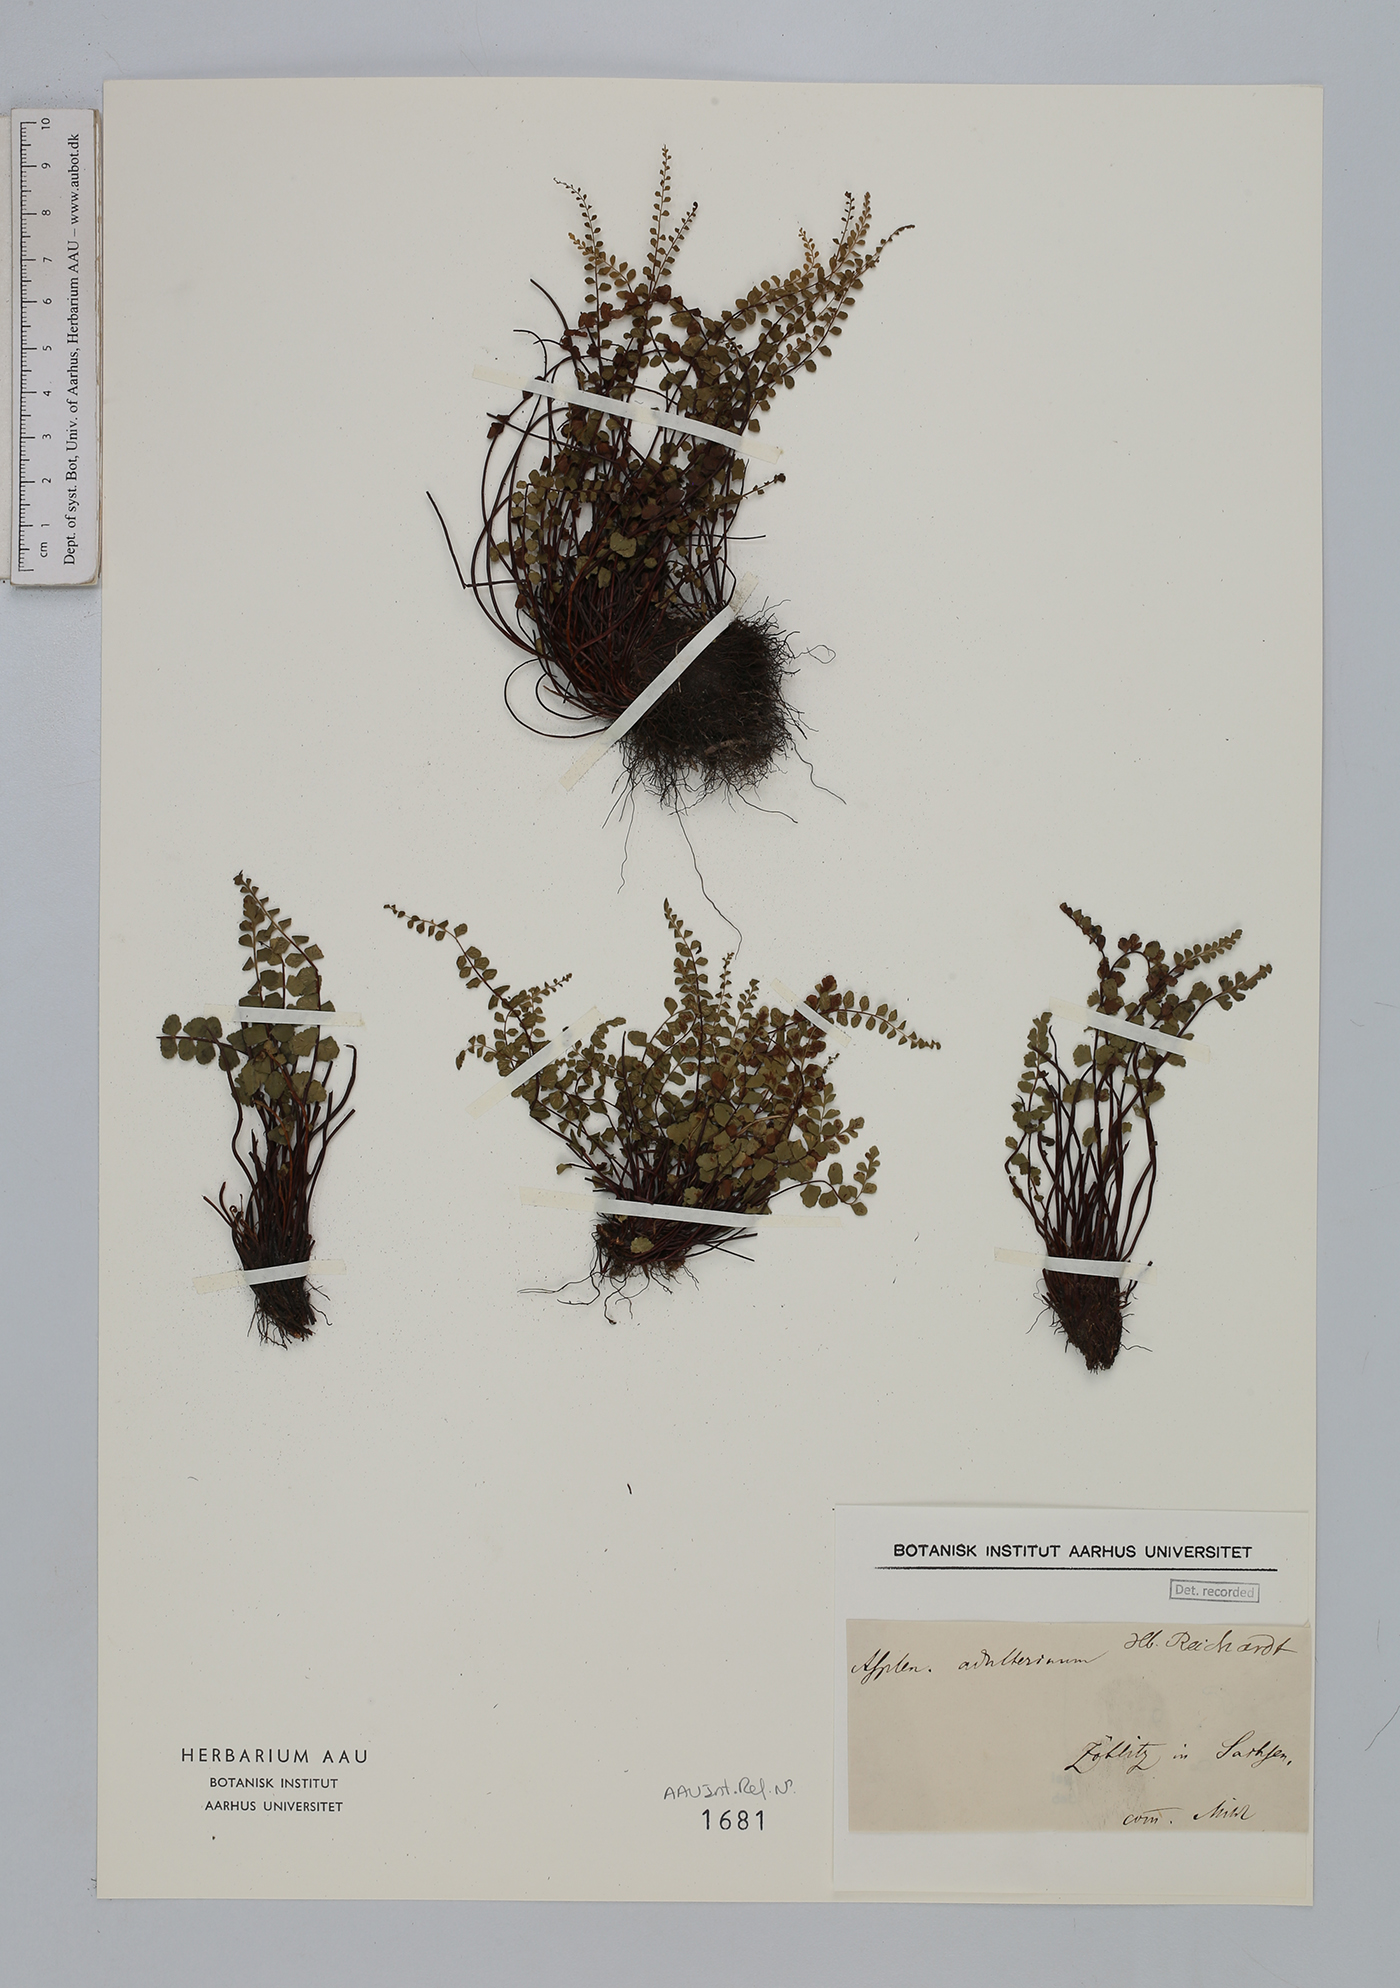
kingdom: Plantae
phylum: Tracheophyta
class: Polypodiopsida
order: Polypodiales
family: Aspleniaceae
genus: Asplenium
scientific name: Asplenium adulterinum
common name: Adulterated spleenwort
